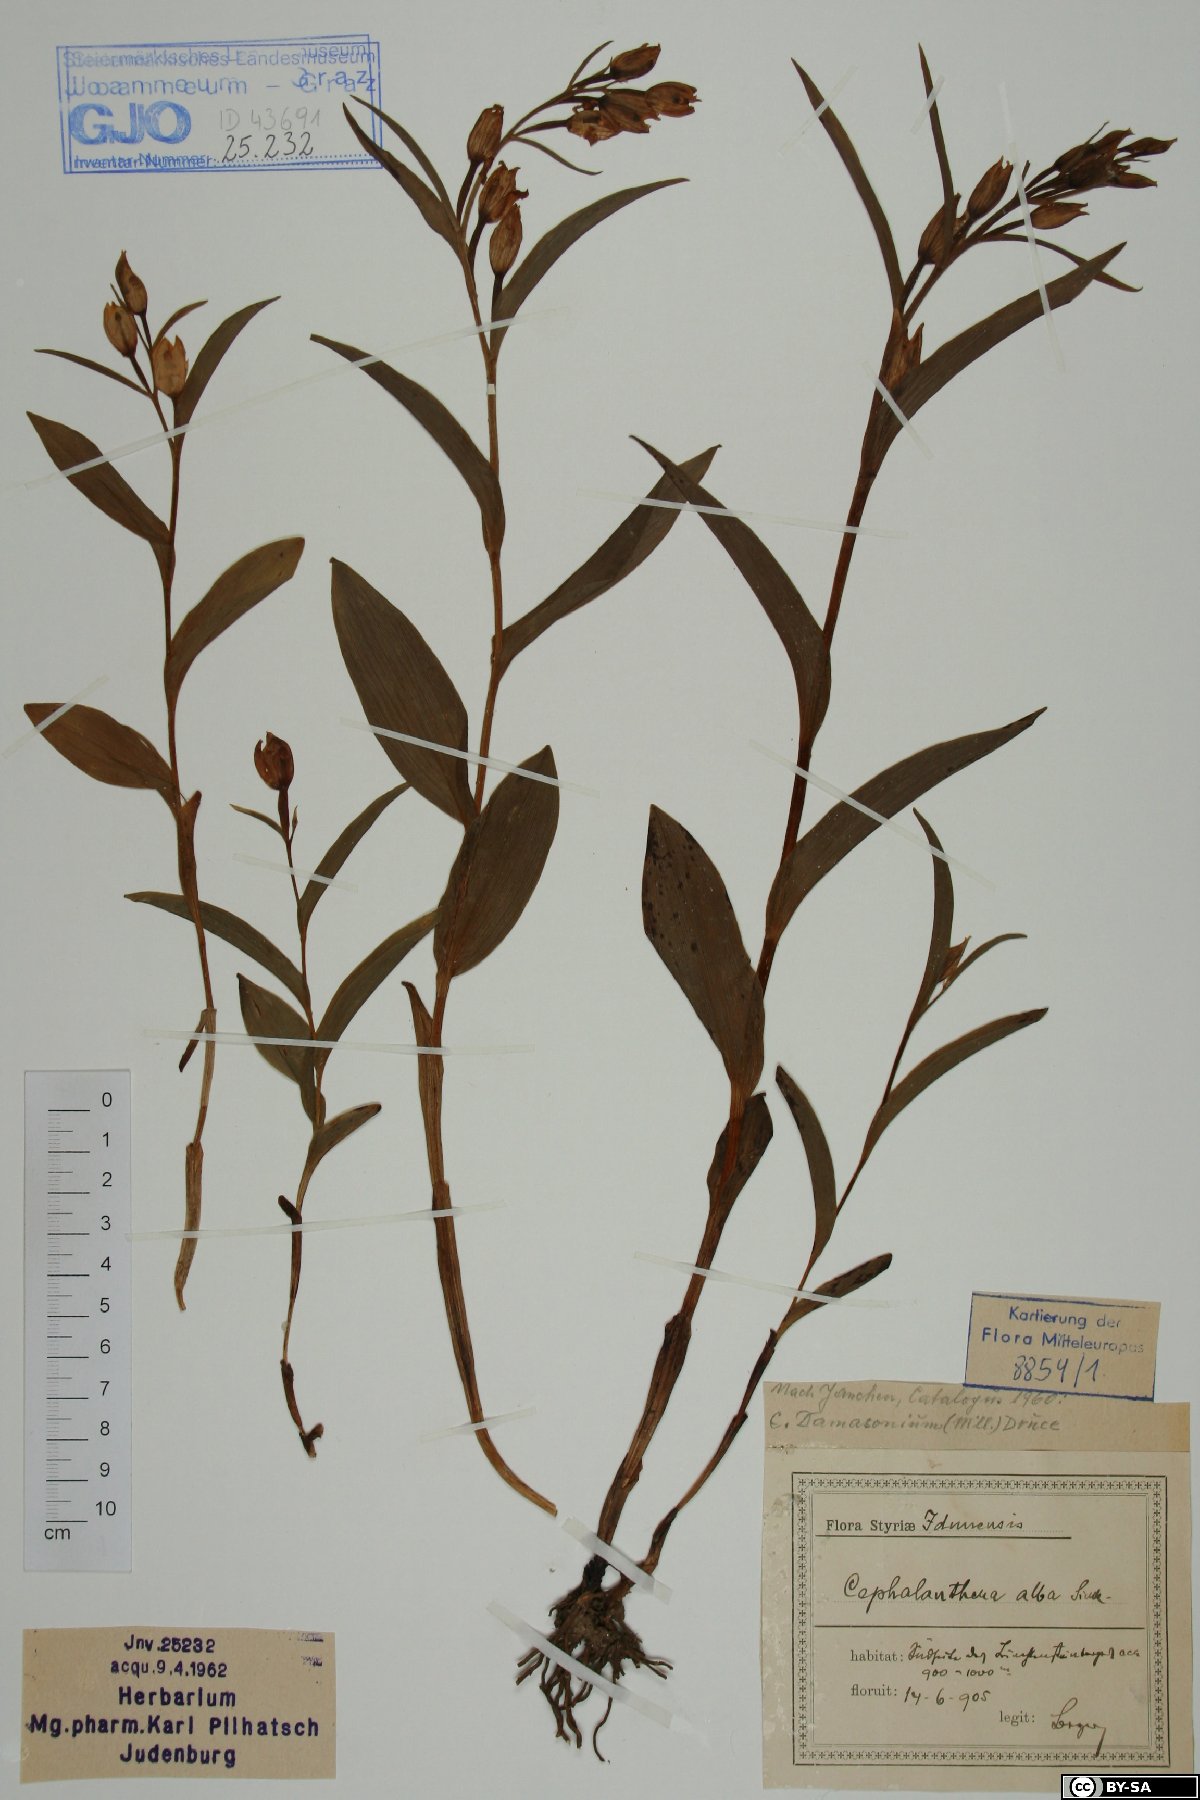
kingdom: Plantae
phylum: Tracheophyta
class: Liliopsida
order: Asparagales
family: Orchidaceae
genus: Cephalanthera
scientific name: Cephalanthera damasonium
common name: White helleborine
